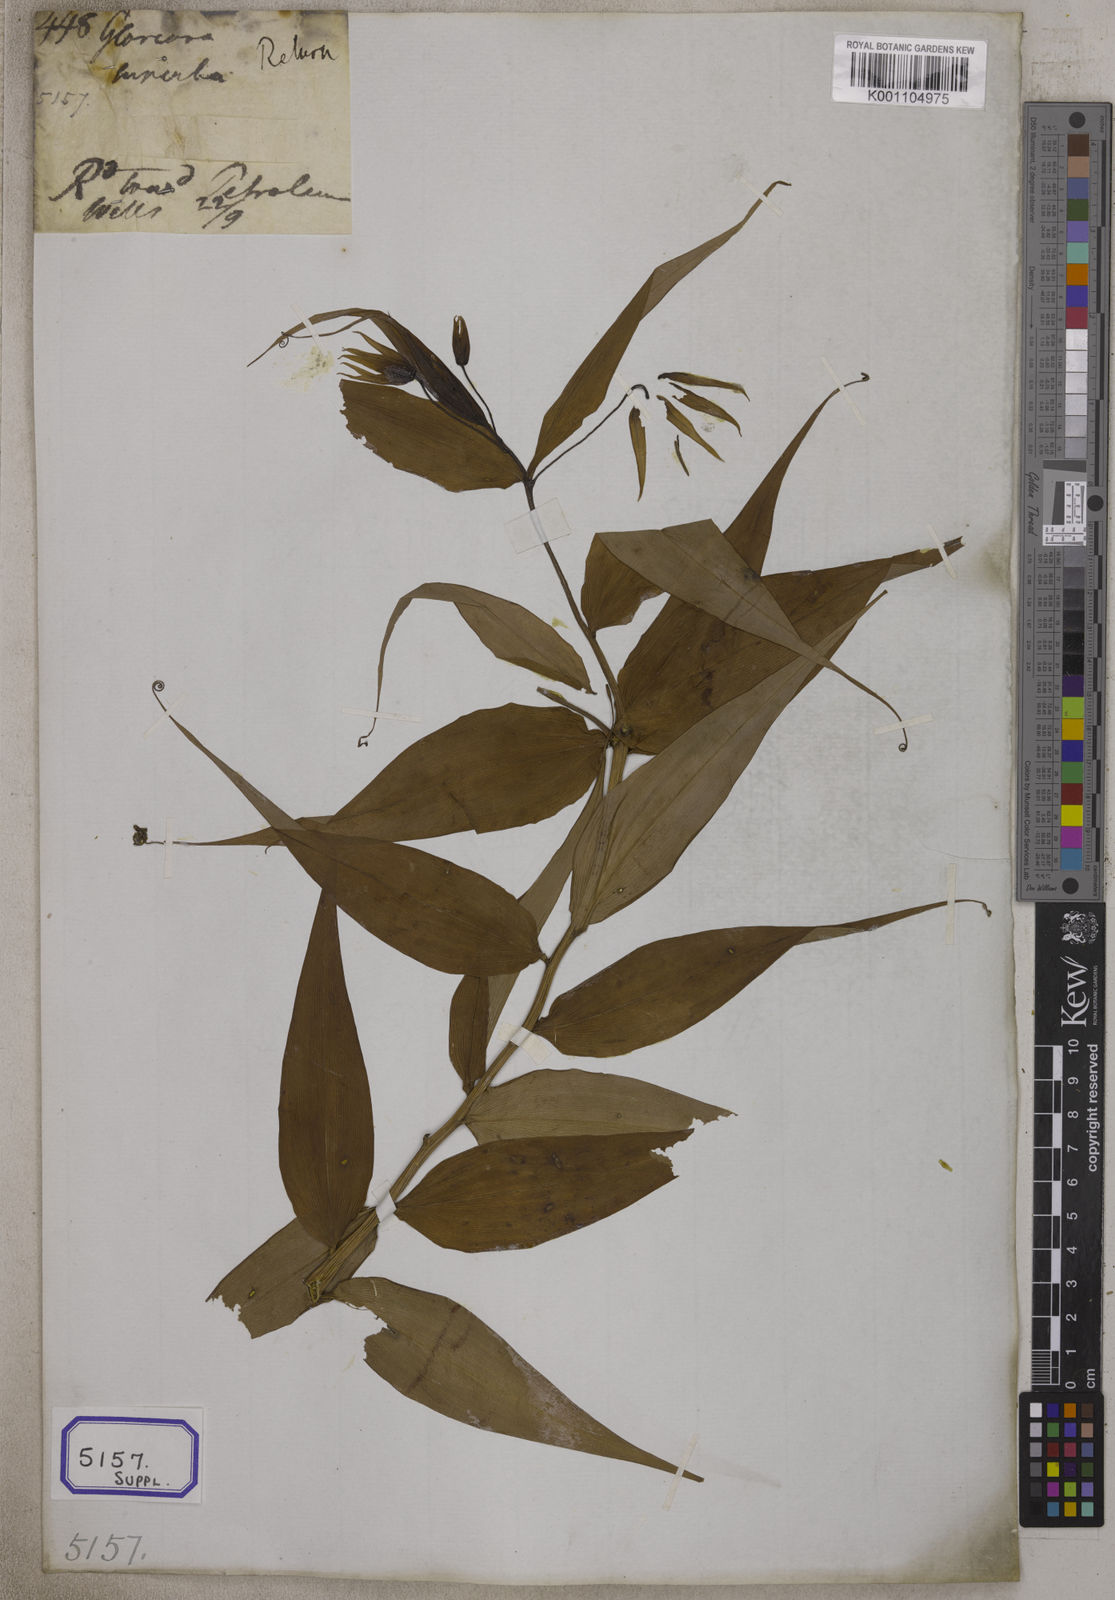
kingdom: Plantae
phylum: Tracheophyta
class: Liliopsida
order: Liliales
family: Colchicaceae
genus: Gloriosa
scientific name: Gloriosa superba
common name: Flame lily
